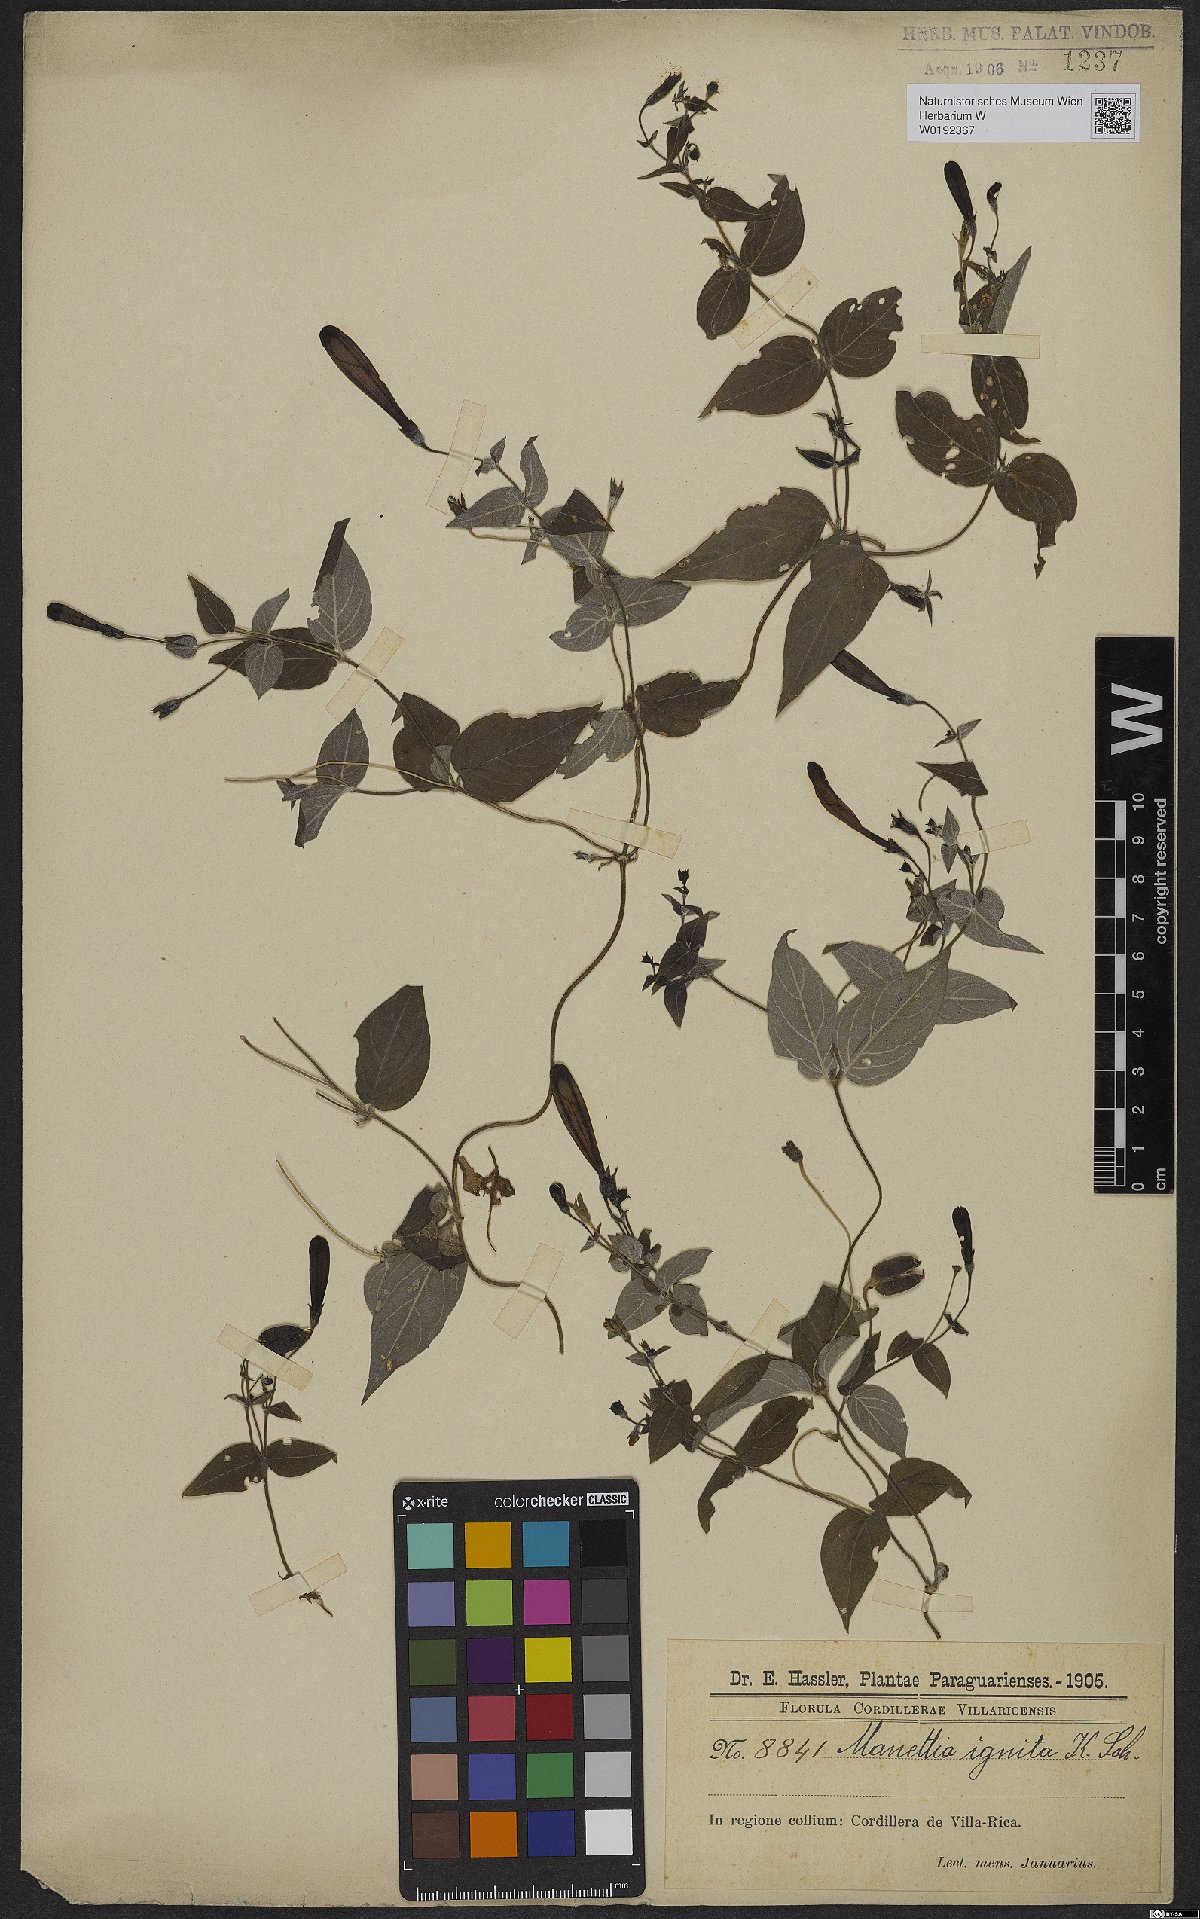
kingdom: Plantae
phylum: Tracheophyta
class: Magnoliopsida
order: Gentianales
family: Rubiaceae
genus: Manettia
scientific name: Manettia cordifolia
